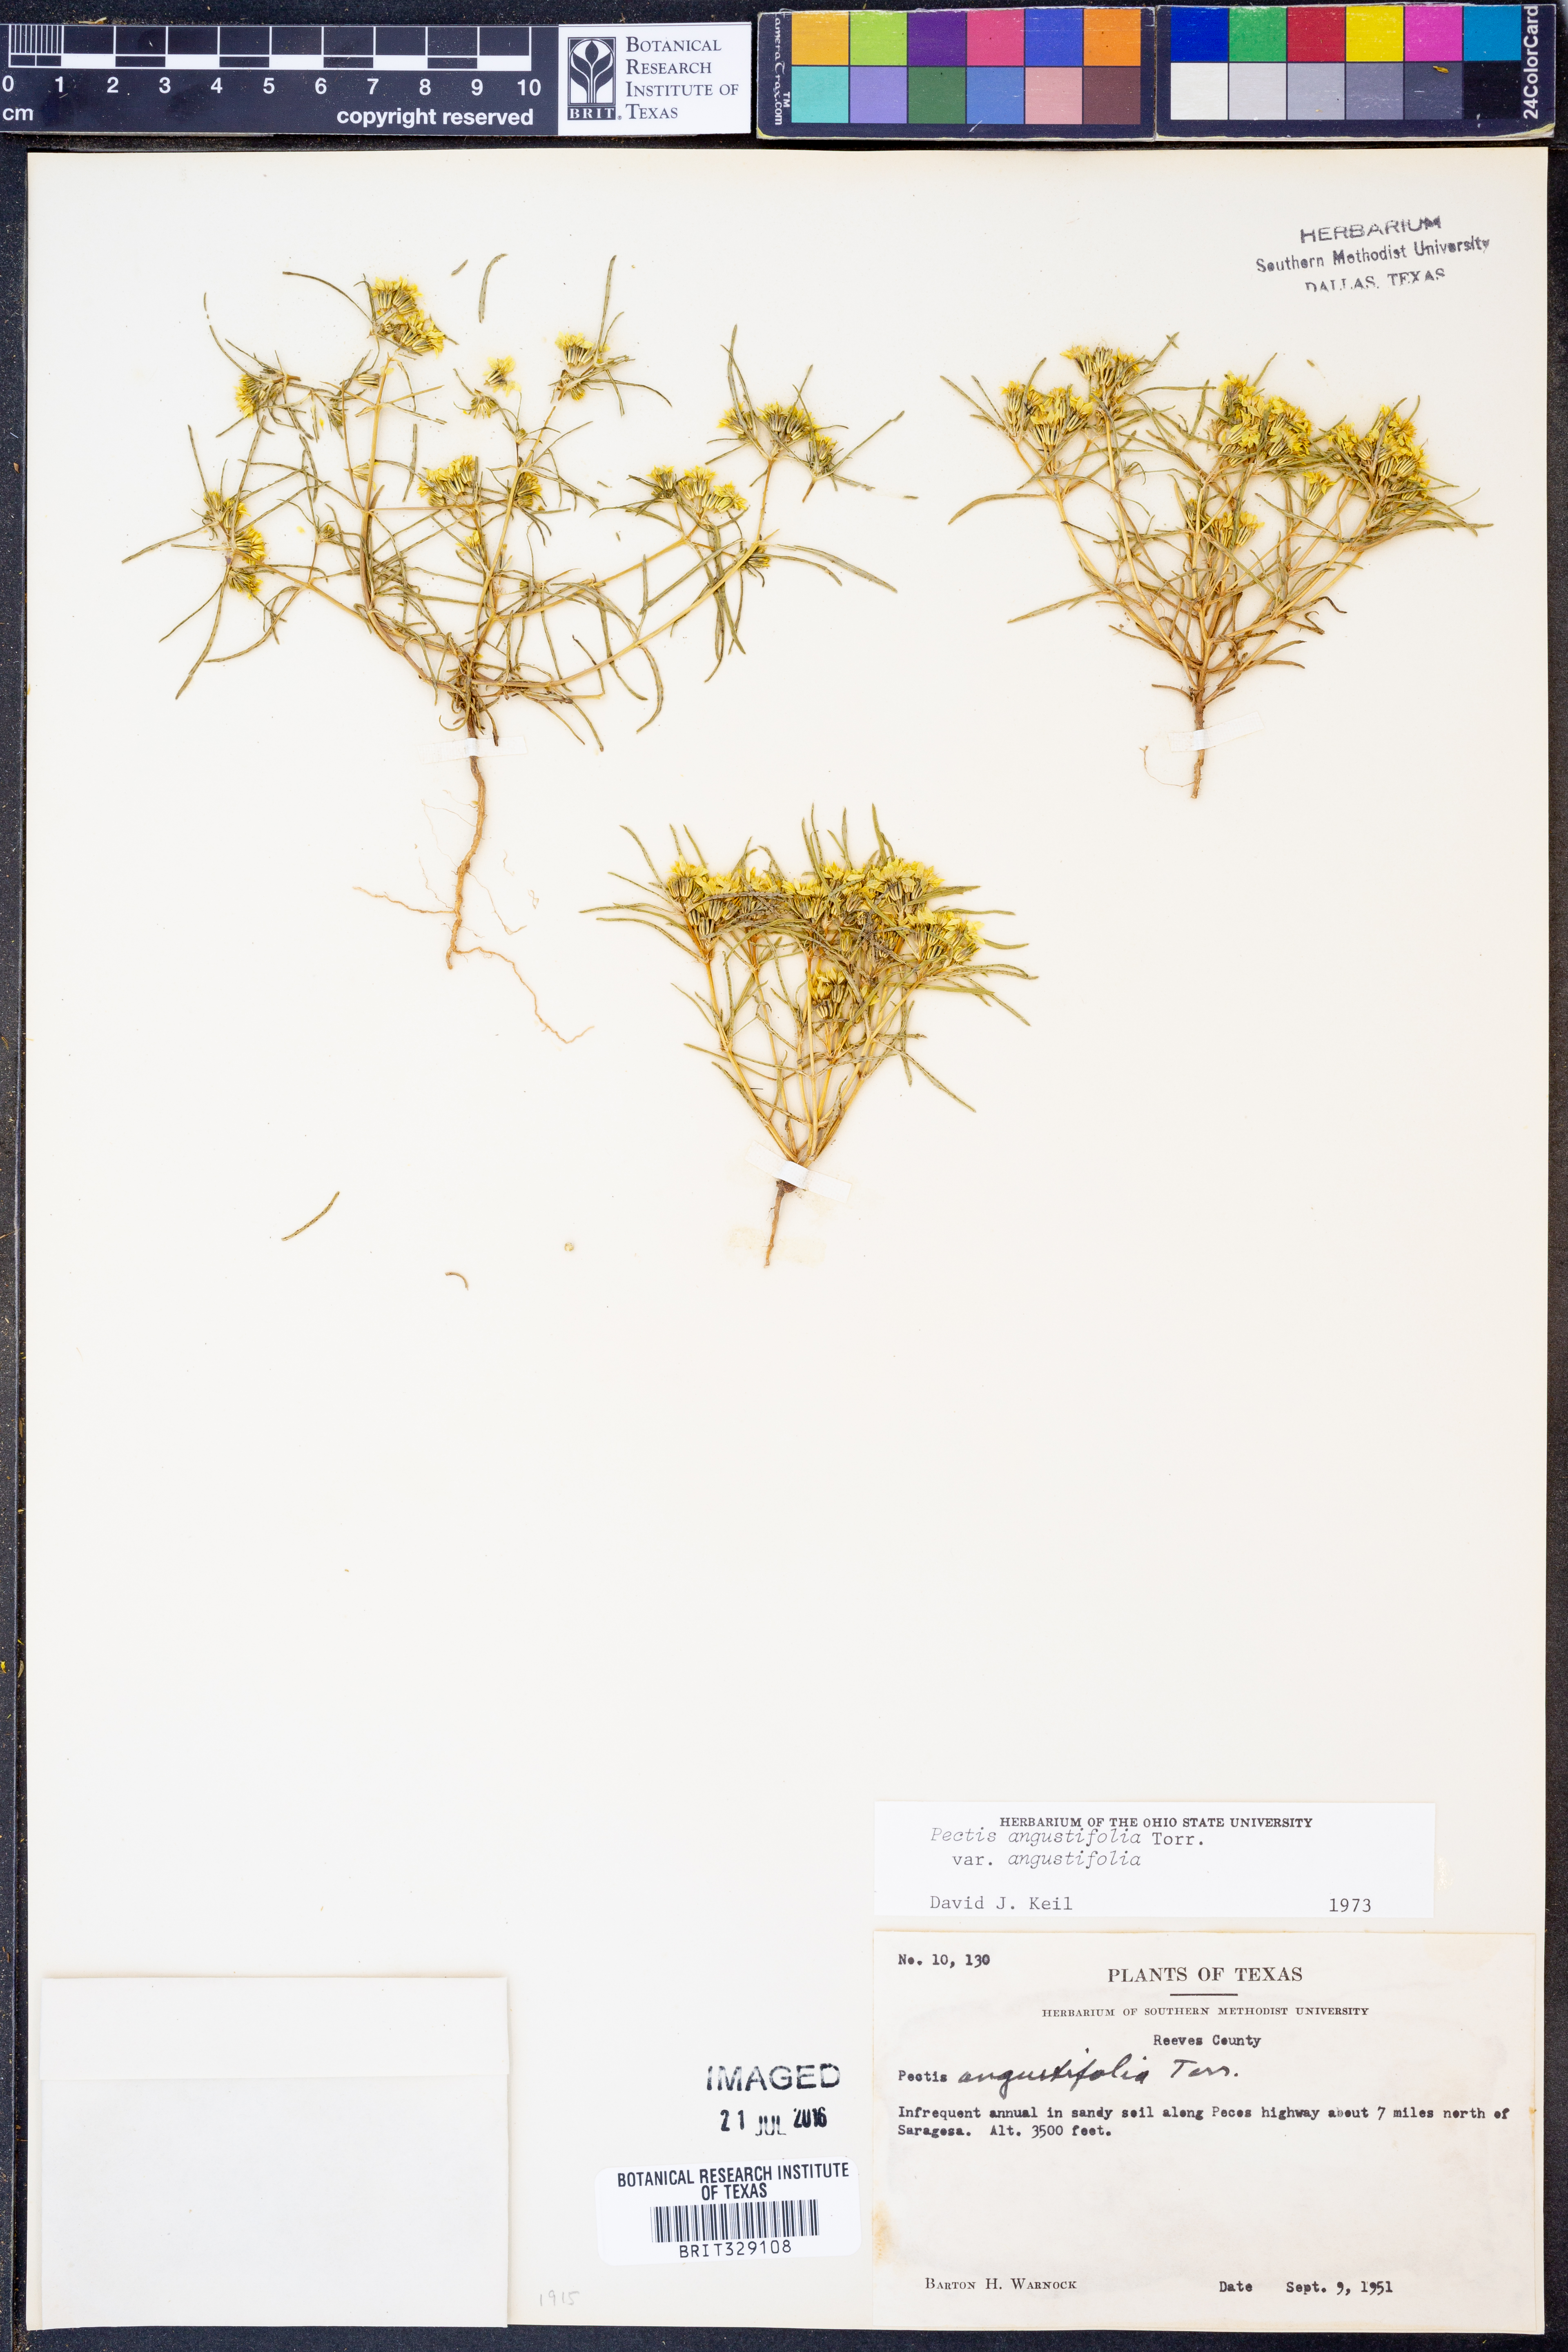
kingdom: Plantae
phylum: Tracheophyta
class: Magnoliopsida
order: Asterales
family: Asteraceae
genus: Pectis
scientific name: Pectis angustifolia
